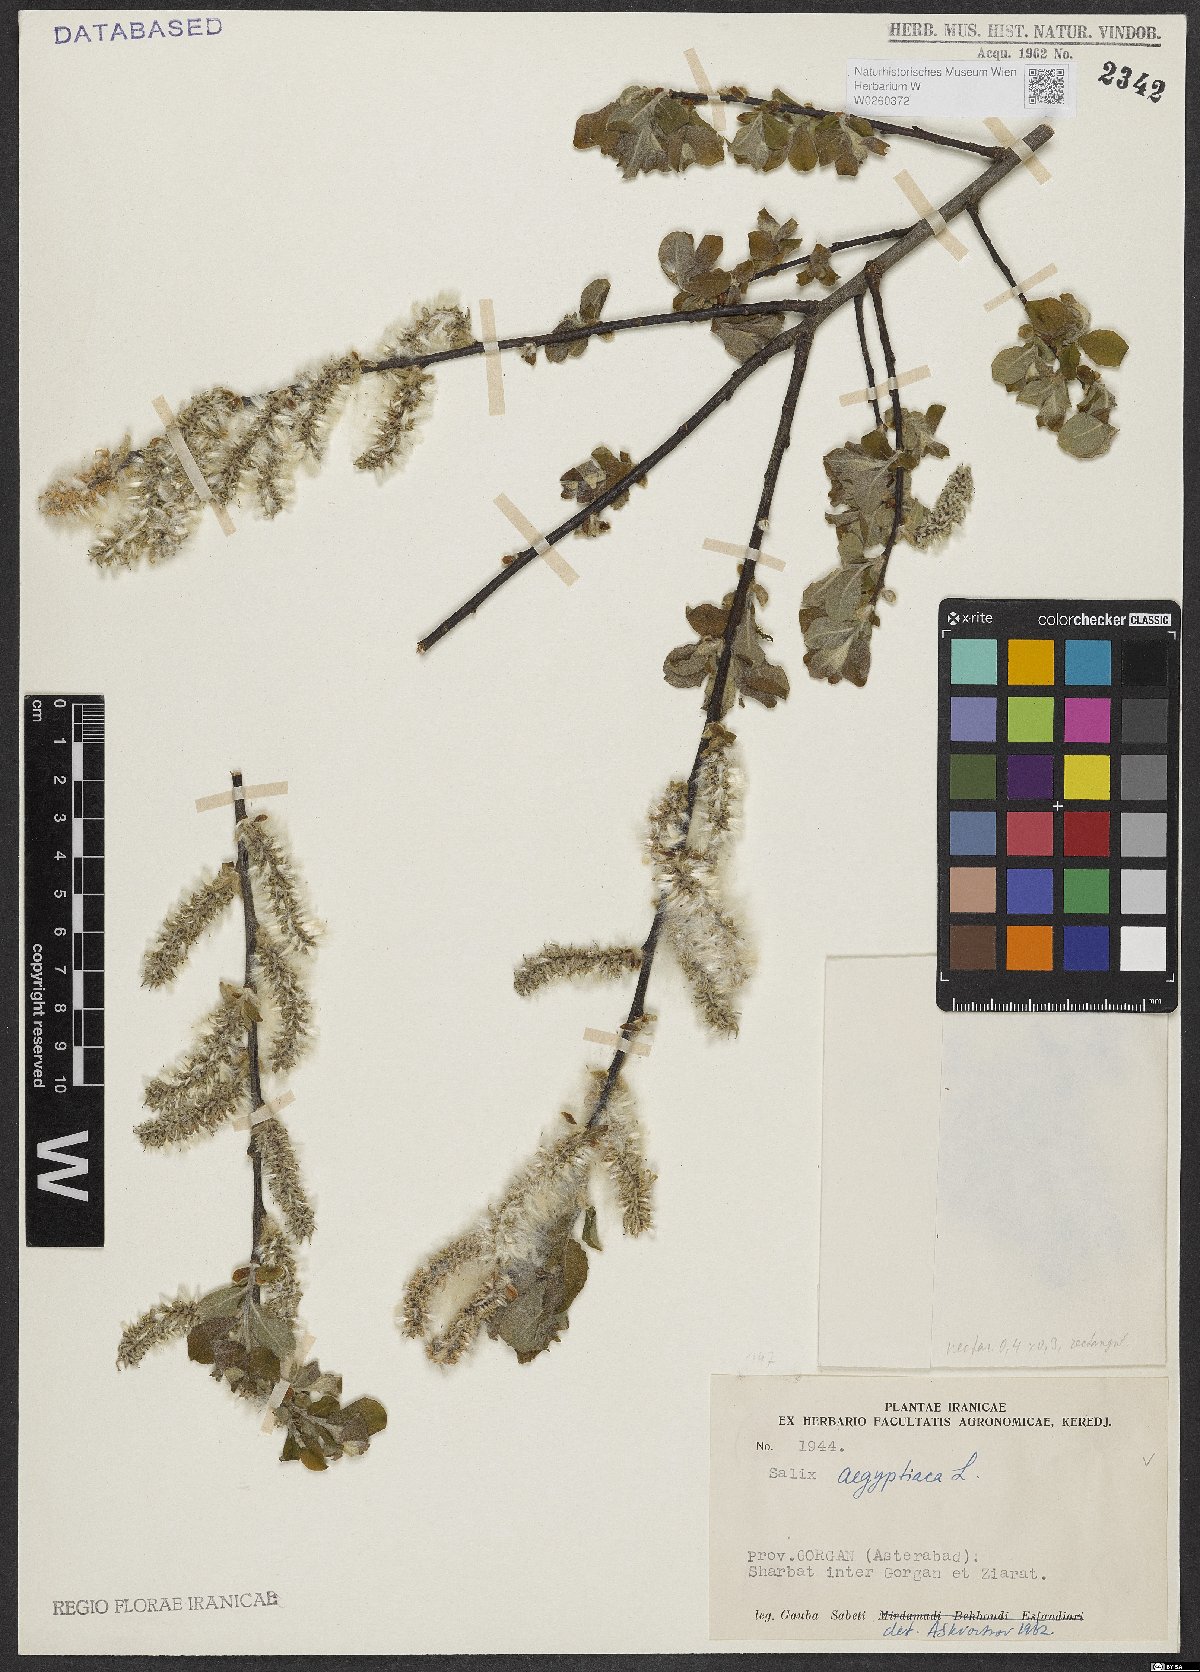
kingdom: Plantae
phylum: Tracheophyta
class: Magnoliopsida
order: Malpighiales
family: Salicaceae
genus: Salix
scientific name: Salix aegyptiaca
